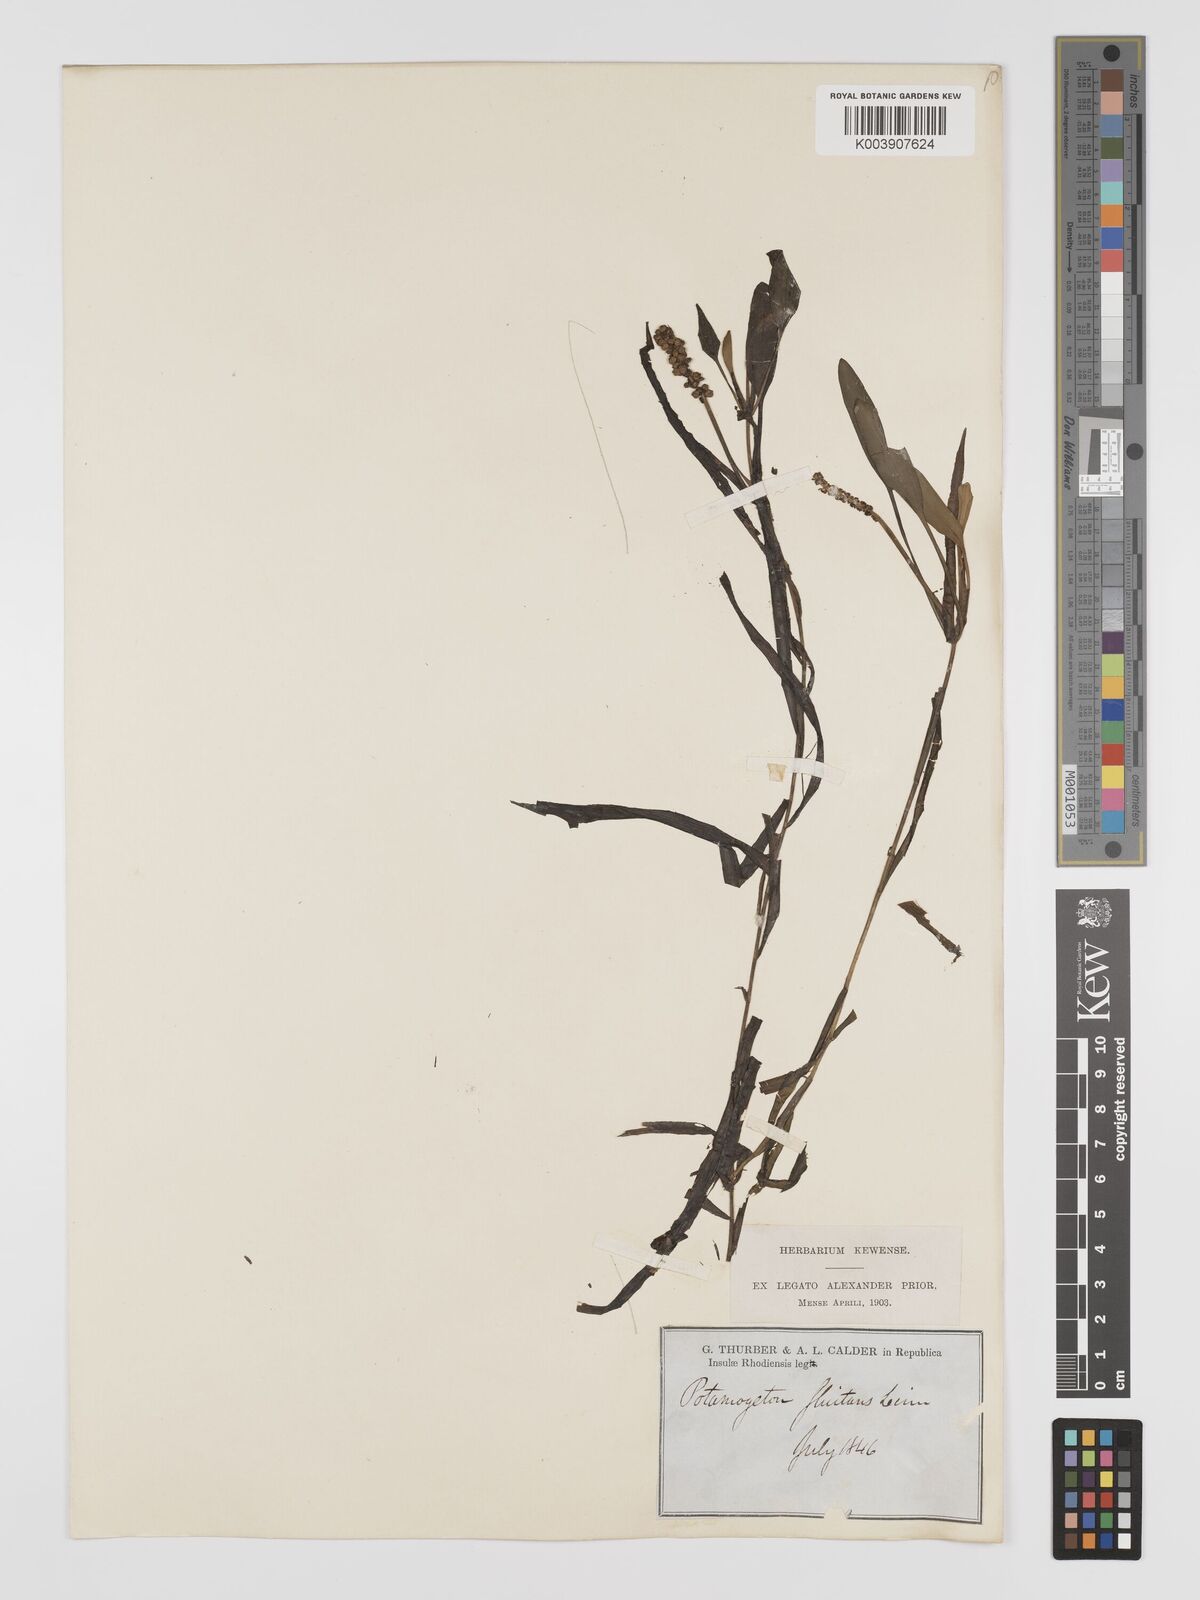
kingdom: Plantae
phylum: Tracheophyta
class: Liliopsida
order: Alismatales
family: Potamogetonaceae
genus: Potamogeton
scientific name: Potamogeton nodosus
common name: Loddon pondweed
